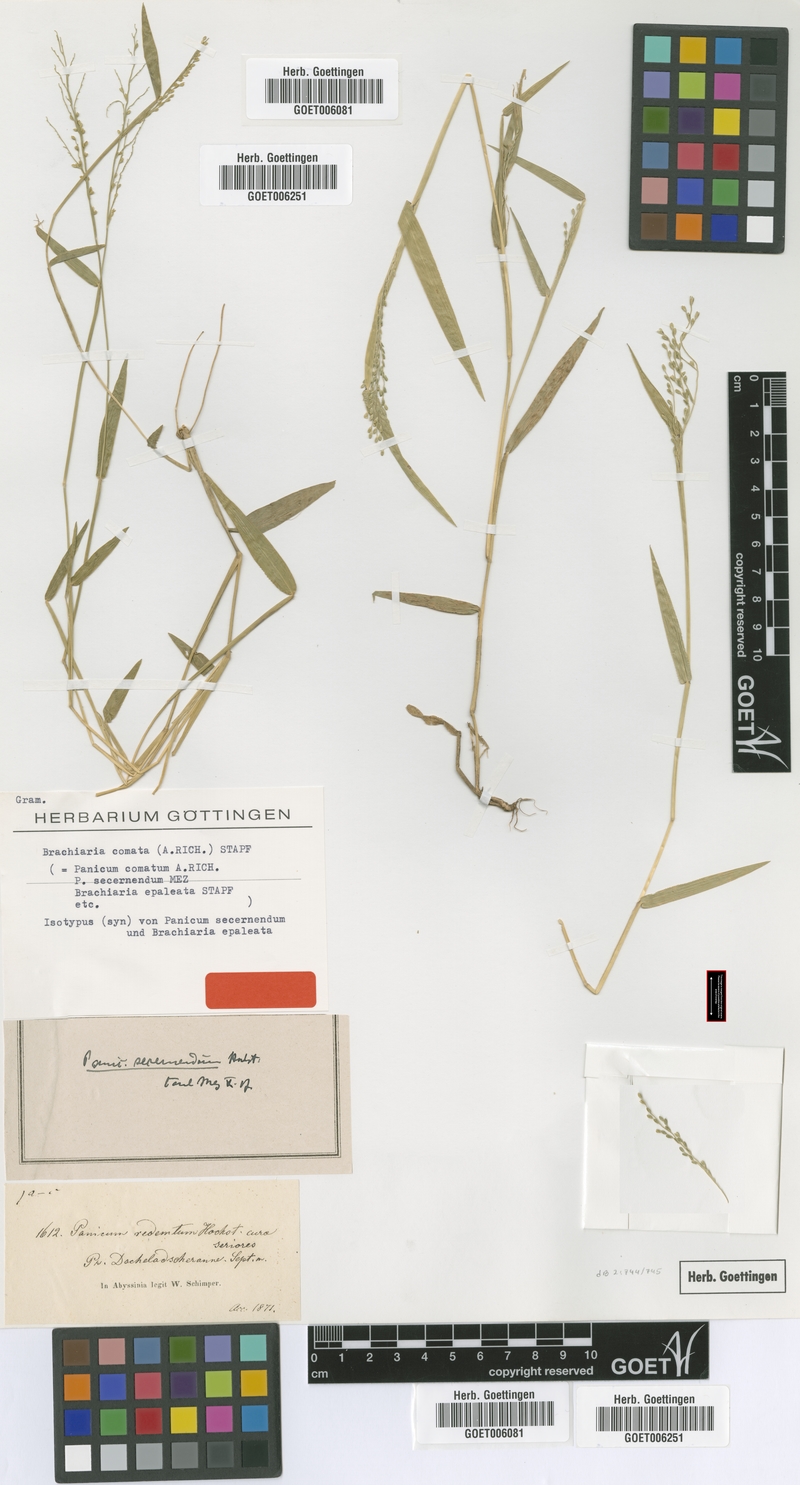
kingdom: Plantae
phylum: Tracheophyta
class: Liliopsida
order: Poales
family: Poaceae
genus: Urochloa
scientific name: Urochloa comata
